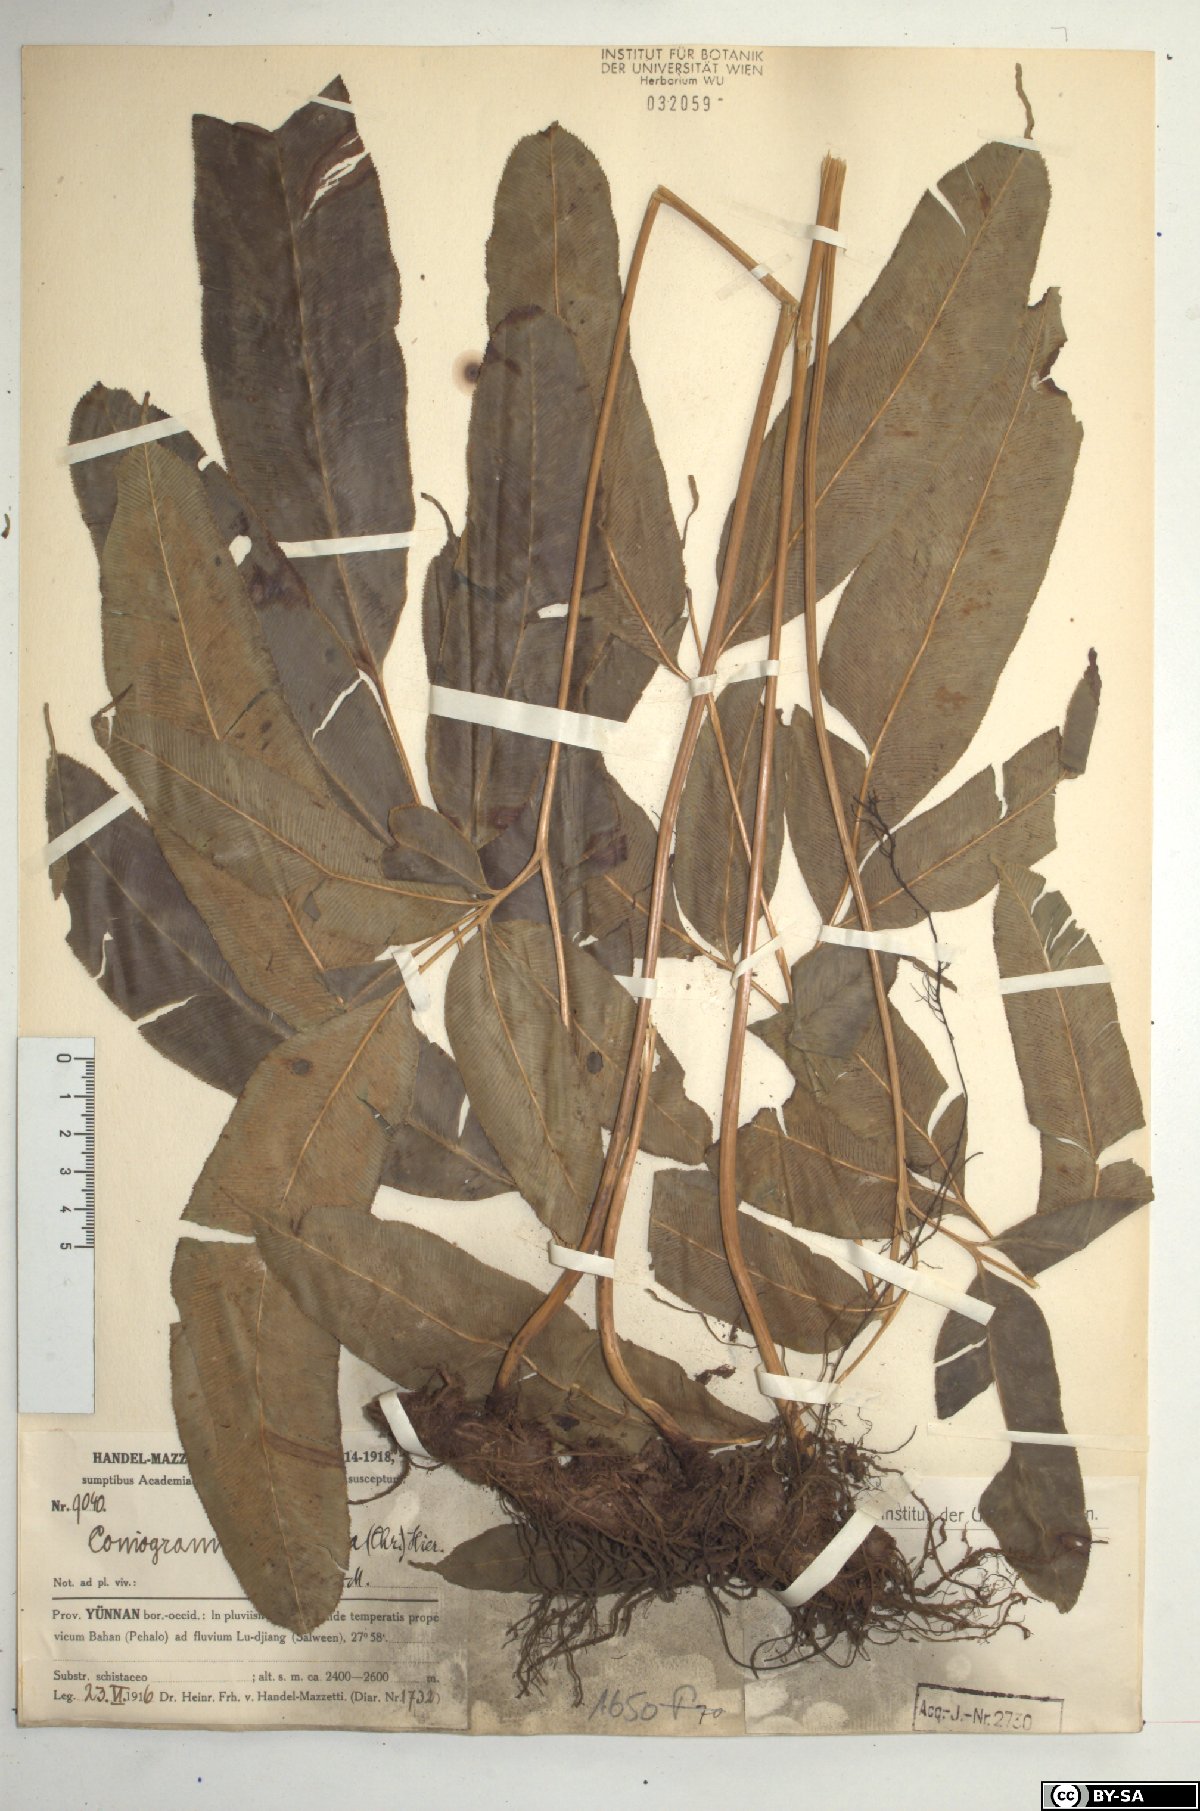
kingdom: Plantae
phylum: Tracheophyta
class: Polypodiopsida
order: Polypodiales
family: Pteridaceae
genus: Coniogramme
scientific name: Coniogramme serrulata
